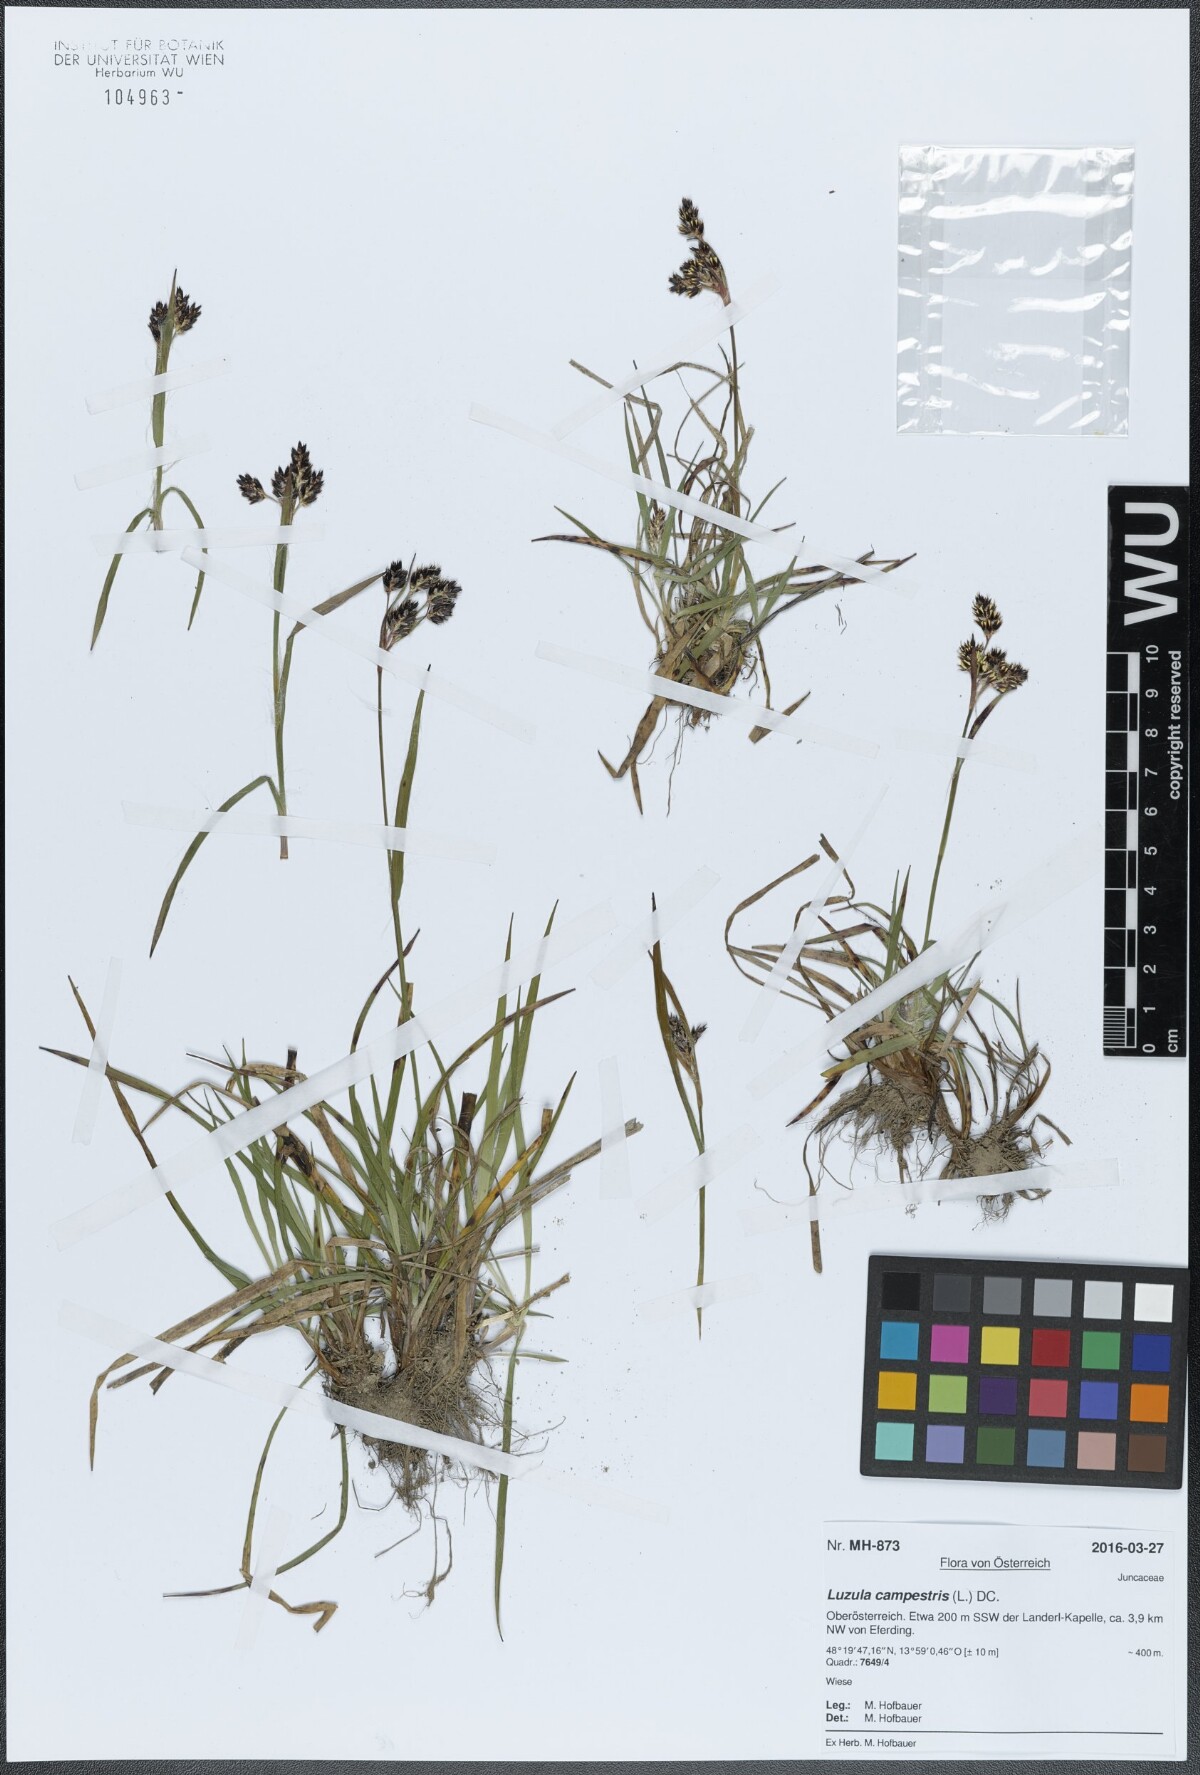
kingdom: Plantae
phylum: Tracheophyta
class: Liliopsida
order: Poales
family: Juncaceae
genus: Luzula
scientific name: Luzula campestris
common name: Field wood-rush
